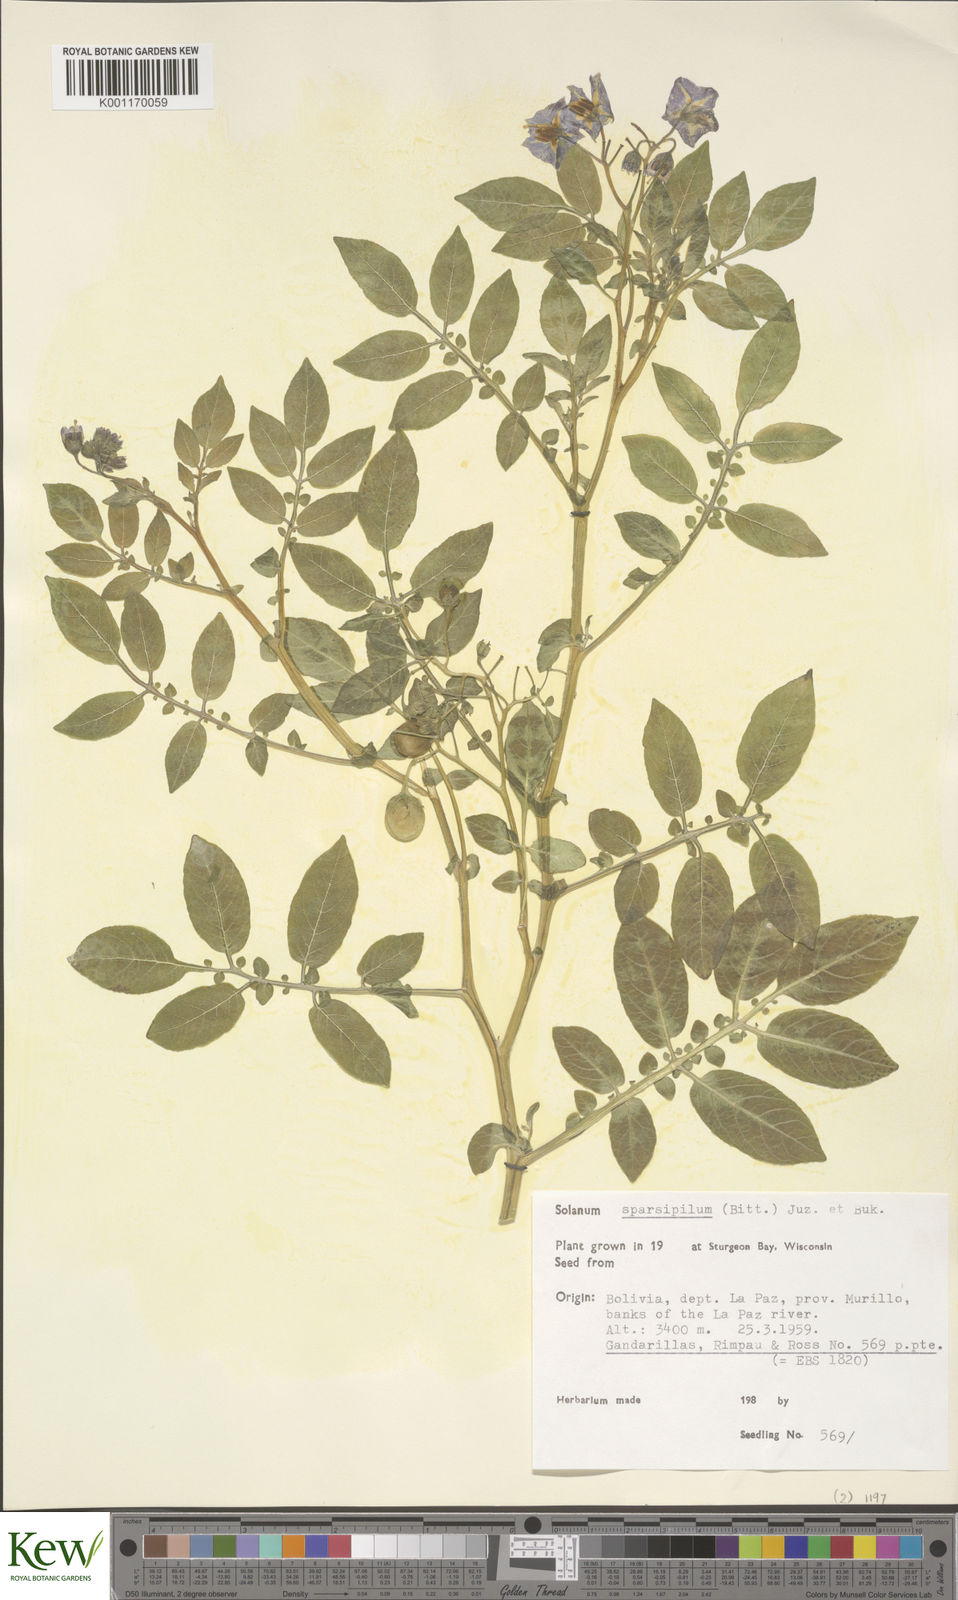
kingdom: Plantae
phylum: Tracheophyta
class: Magnoliopsida
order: Solanales
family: Solanaceae
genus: Solanum
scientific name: Solanum brevicaule
